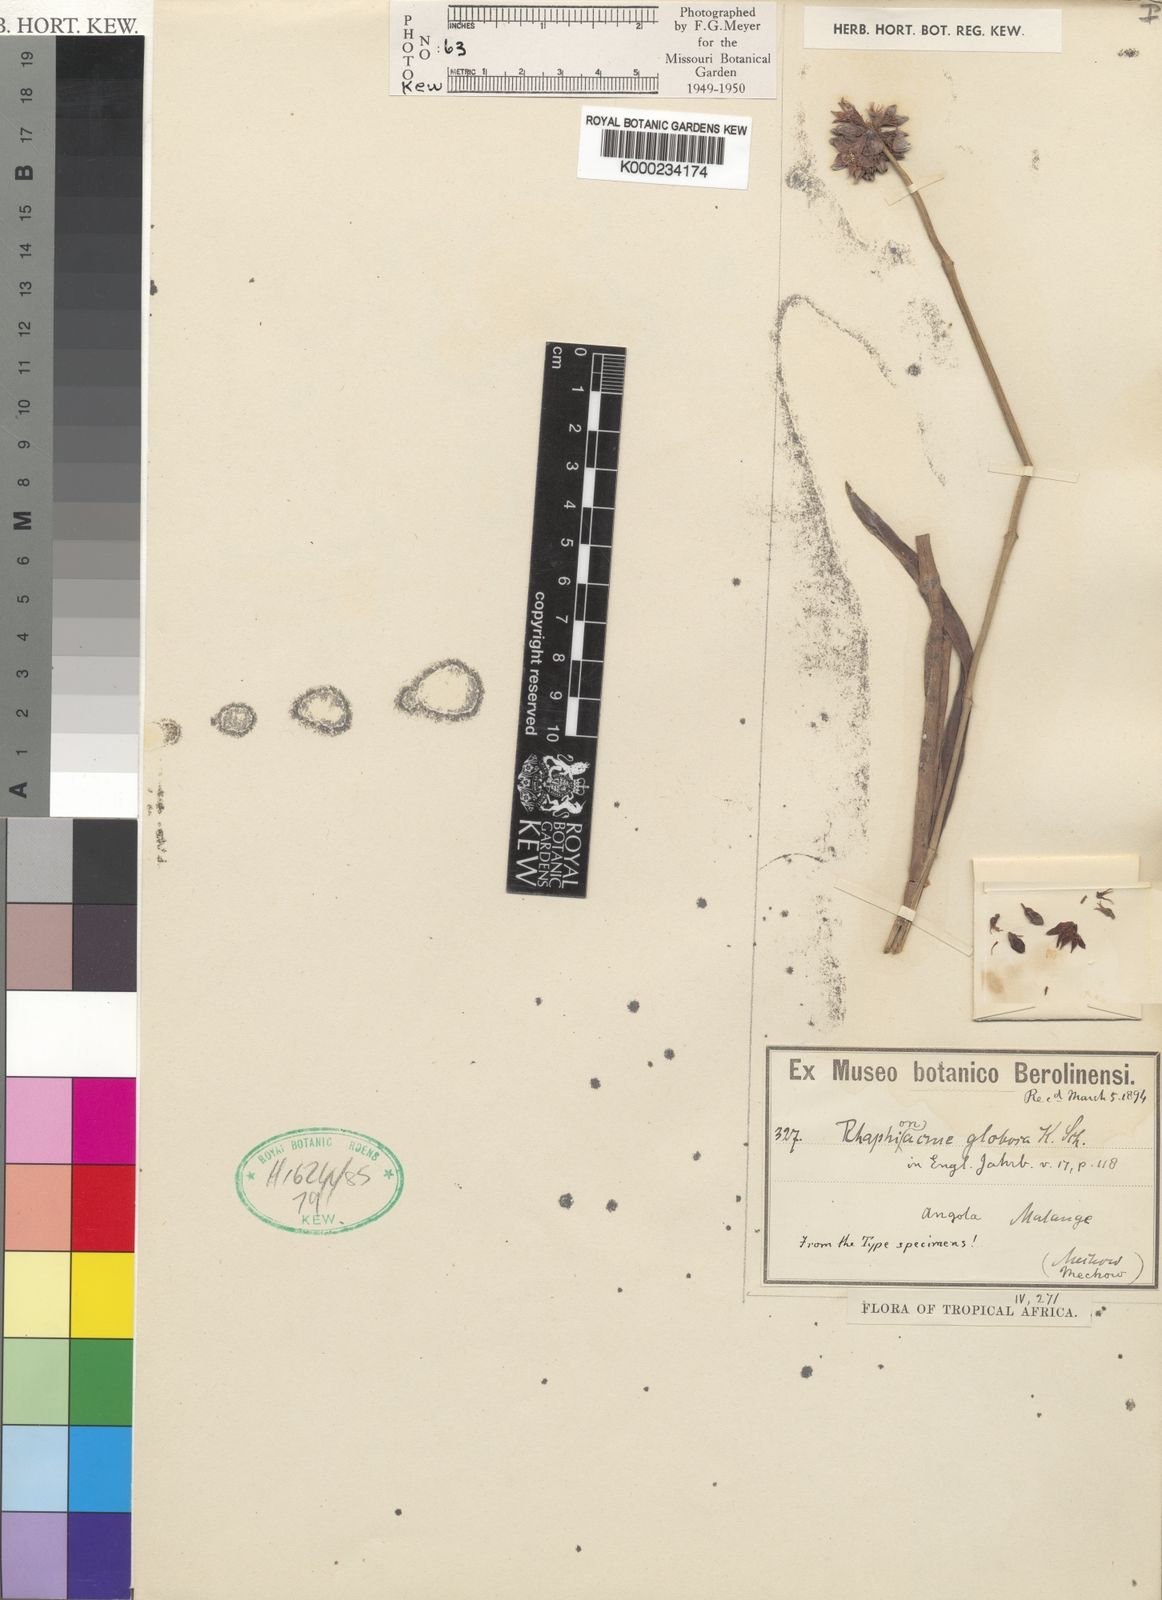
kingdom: Plantae
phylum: Tracheophyta
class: Magnoliopsida
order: Gentianales
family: Apocynaceae
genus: Raphionacme
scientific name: Raphionacme
